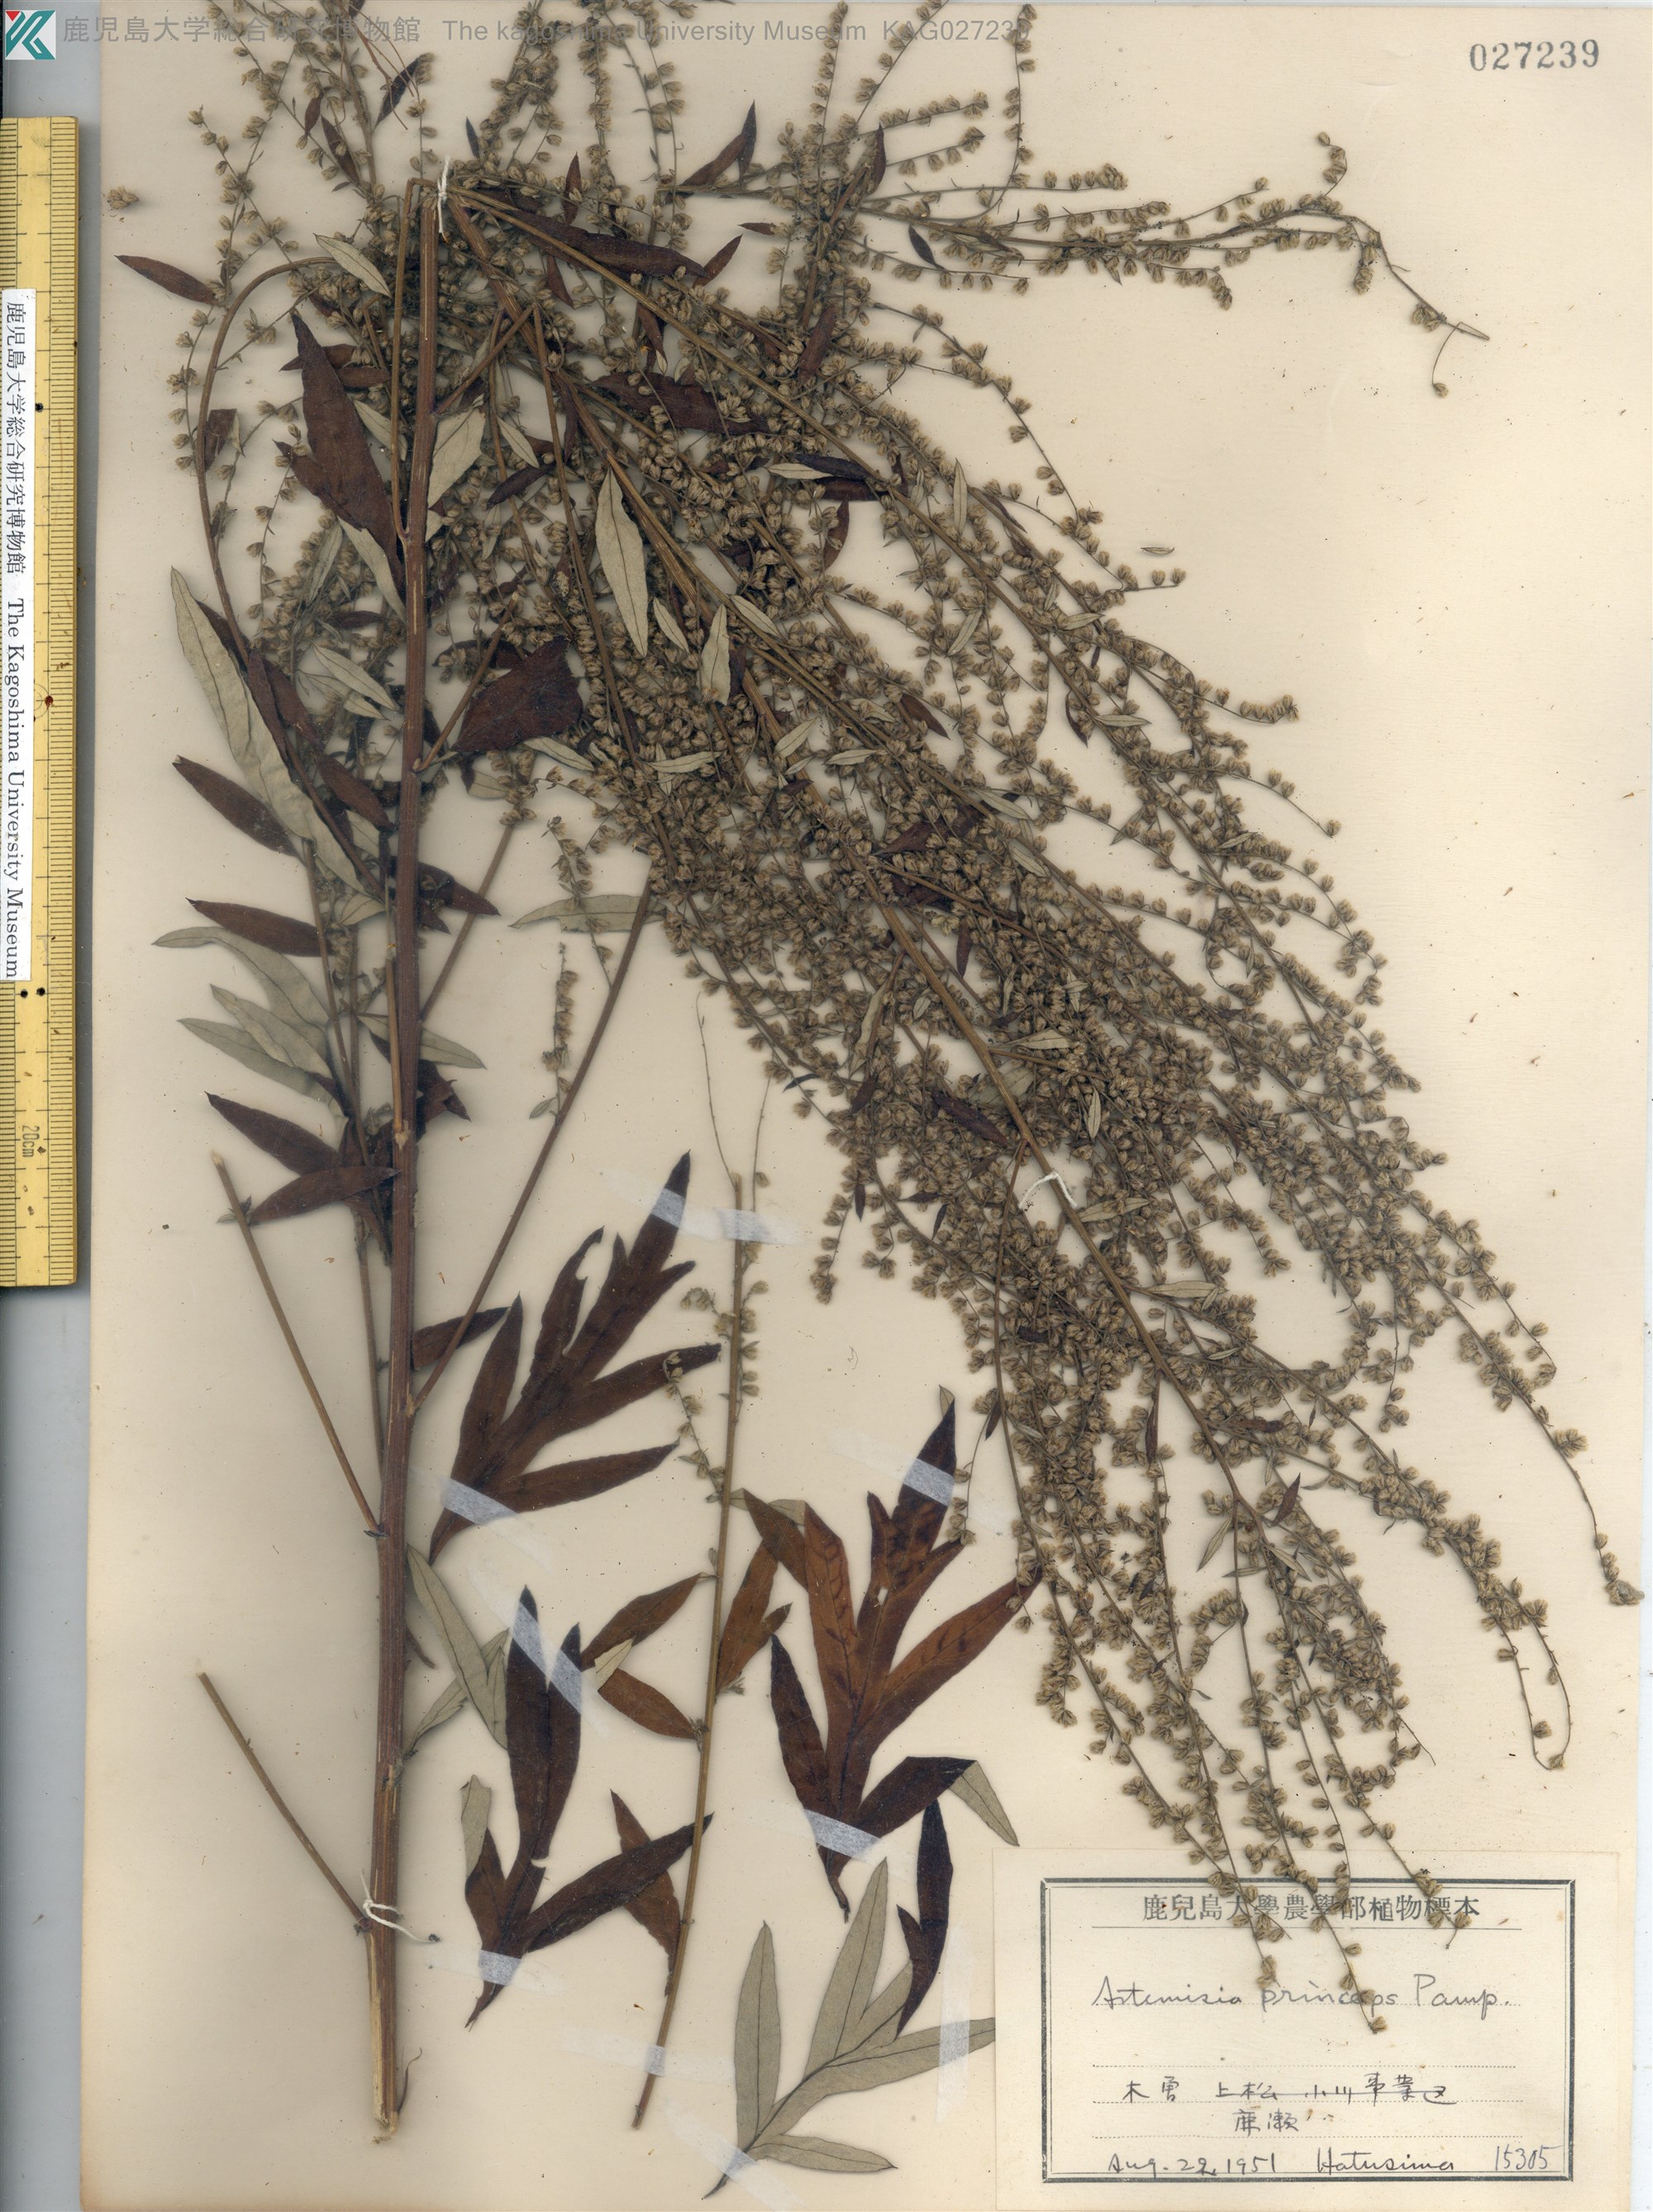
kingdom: Plantae
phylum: Tracheophyta
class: Magnoliopsida
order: Asterales
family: Asteraceae
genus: Artemisia
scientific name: Artemisia princeps
